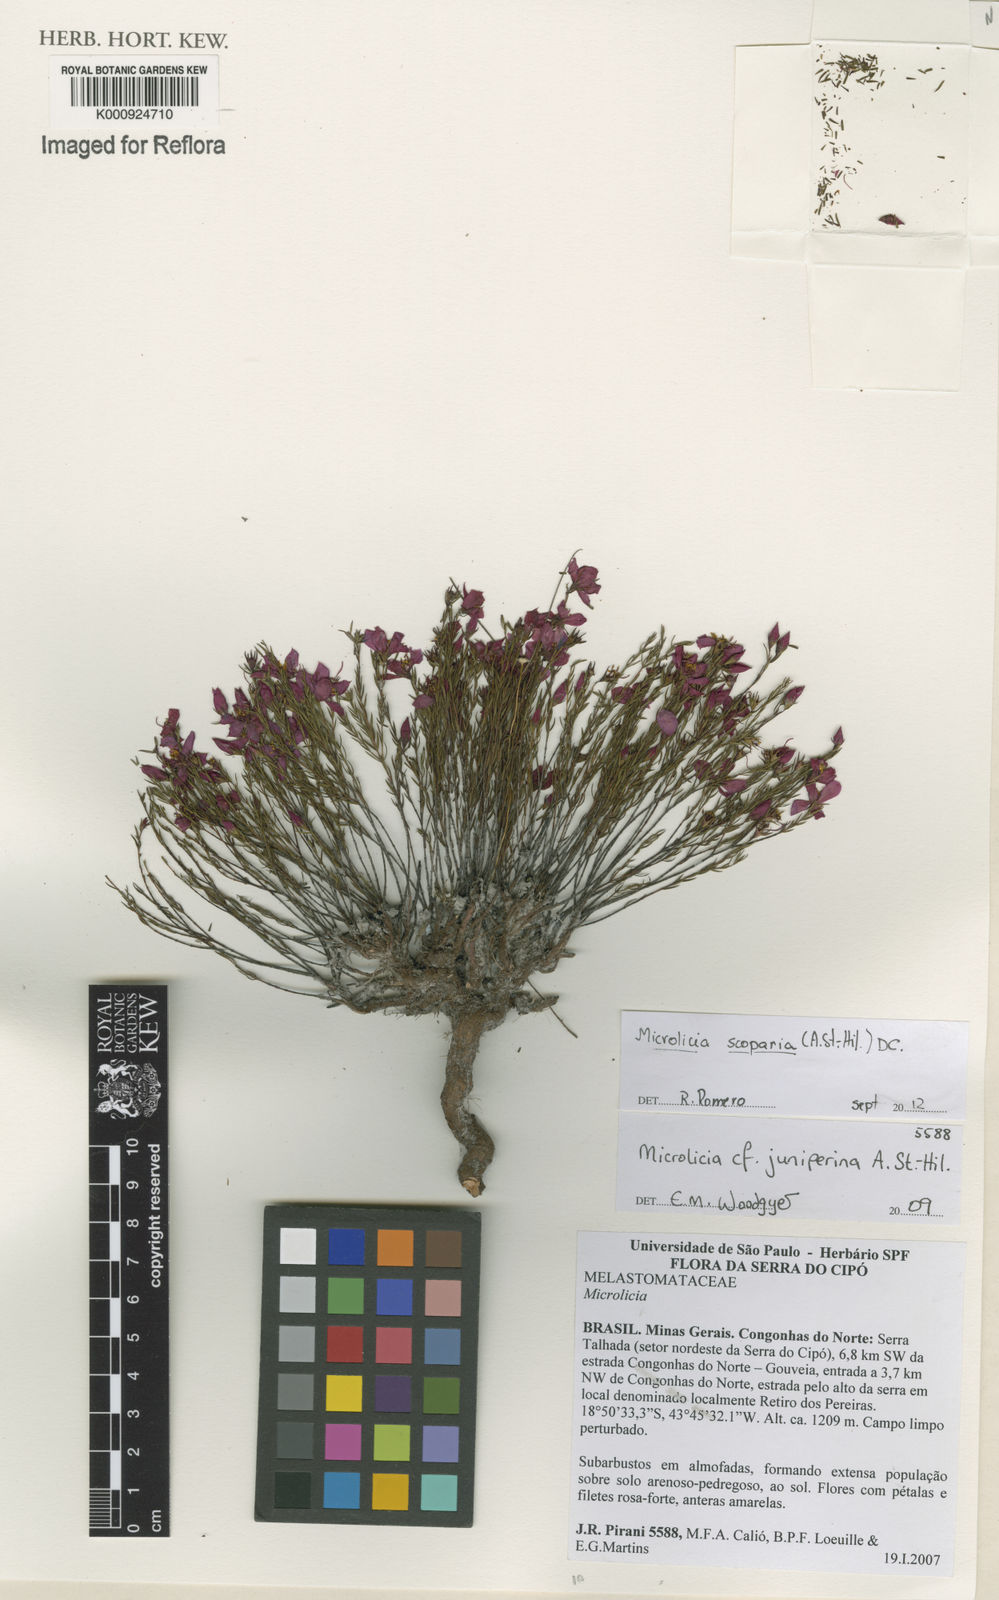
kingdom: Plantae
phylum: Tracheophyta
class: Magnoliopsida
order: Myrtales
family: Melastomataceae
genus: Microlicia
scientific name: Microlicia scoparia
